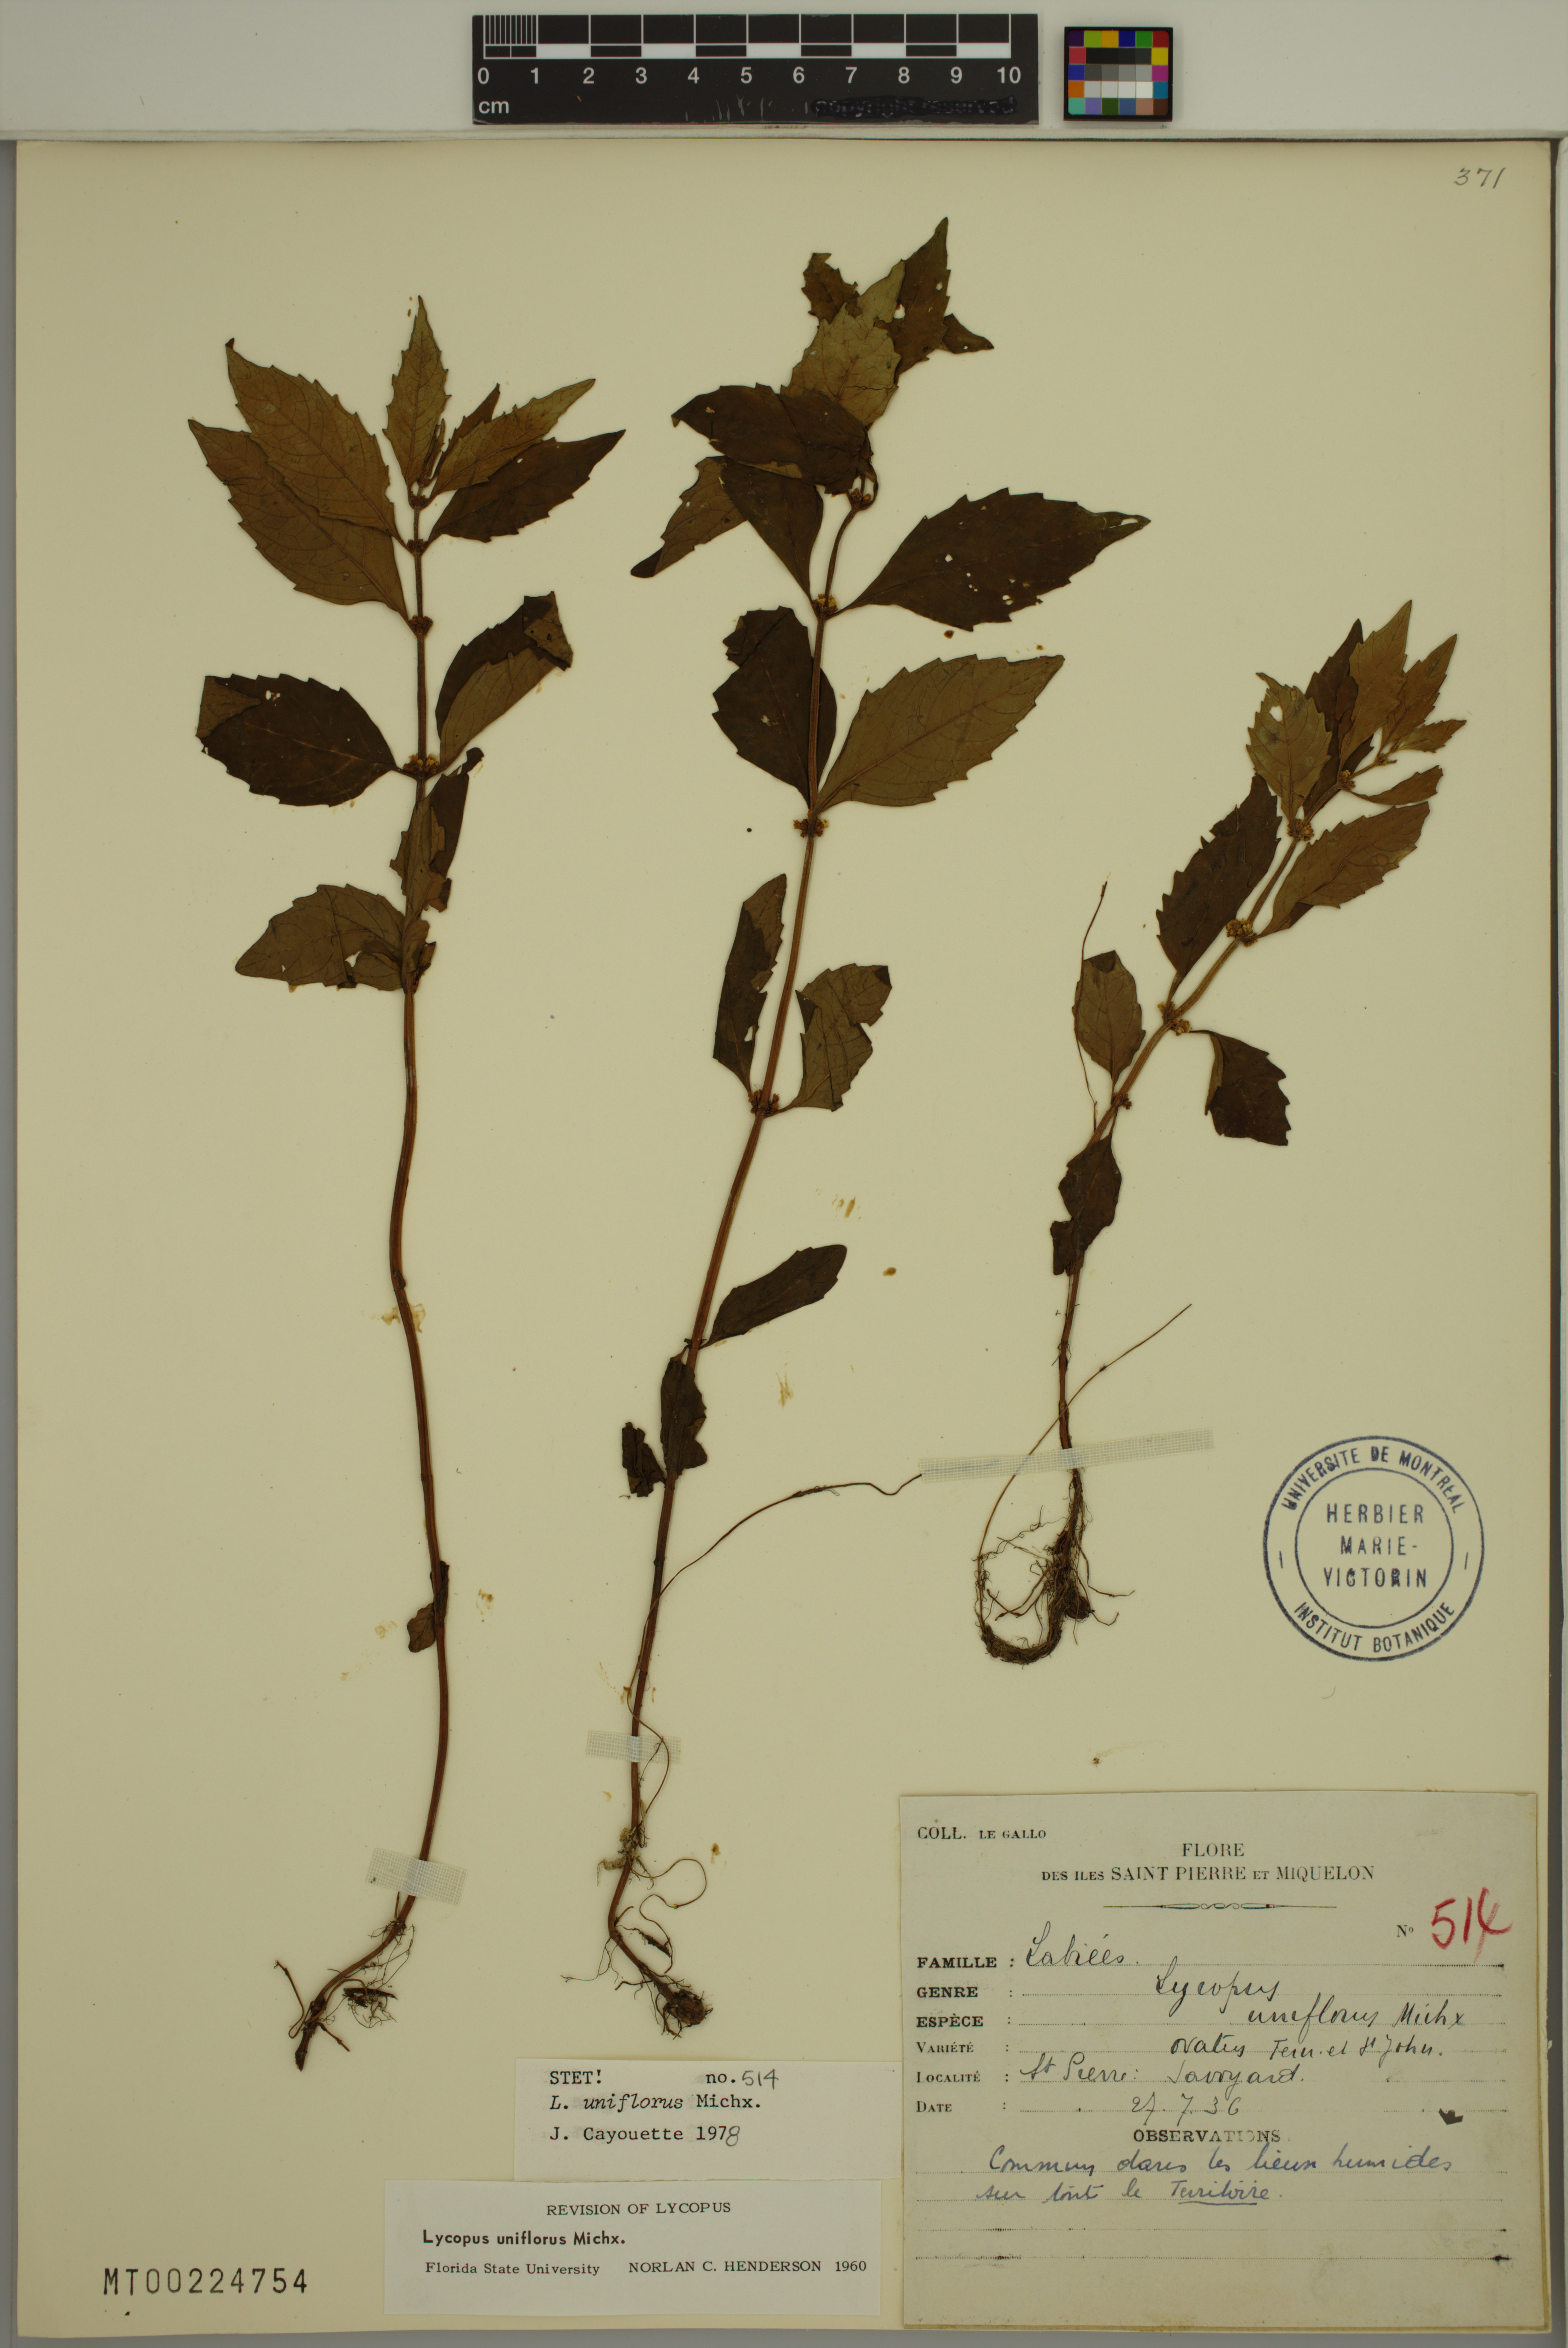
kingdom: Plantae
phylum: Tracheophyta
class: Magnoliopsida
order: Lamiales
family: Lamiaceae
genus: Lycopus
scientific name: Lycopus uniflorus
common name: Northern bugleweed
